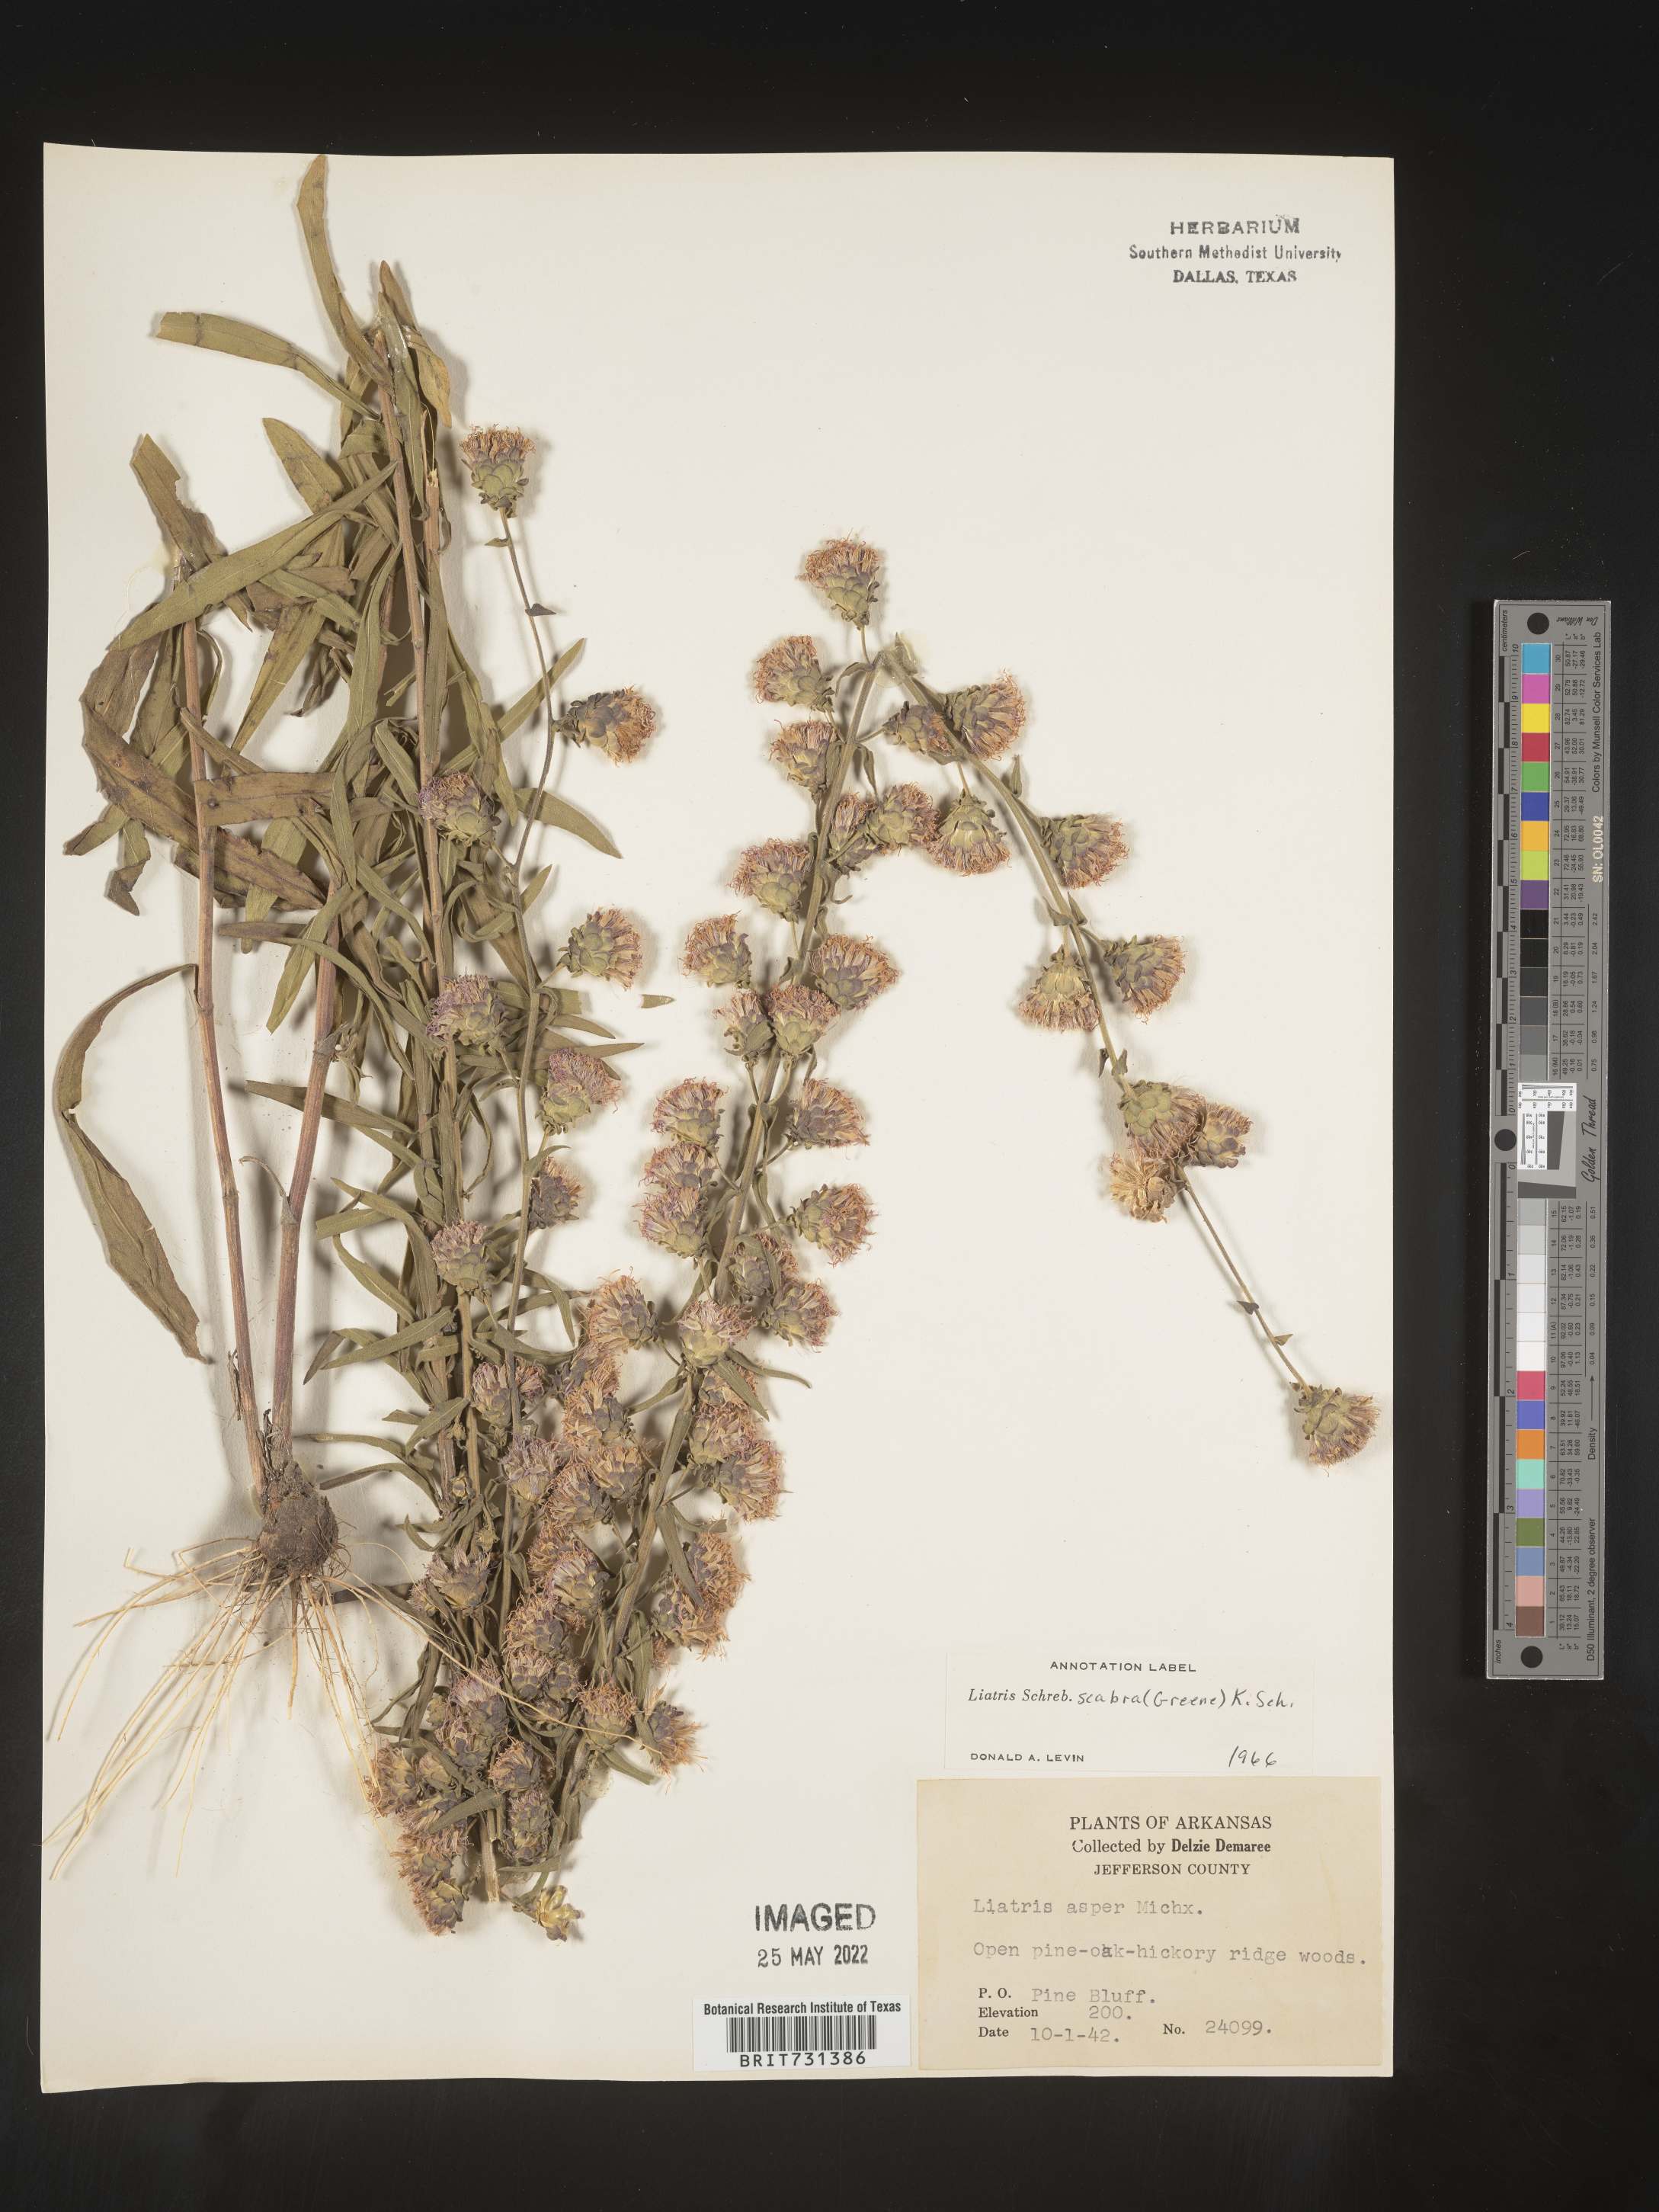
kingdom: Plantae
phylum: Tracheophyta
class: Magnoliopsida
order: Asterales
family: Asteraceae
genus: Liatris
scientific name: Liatris squarrulosa
